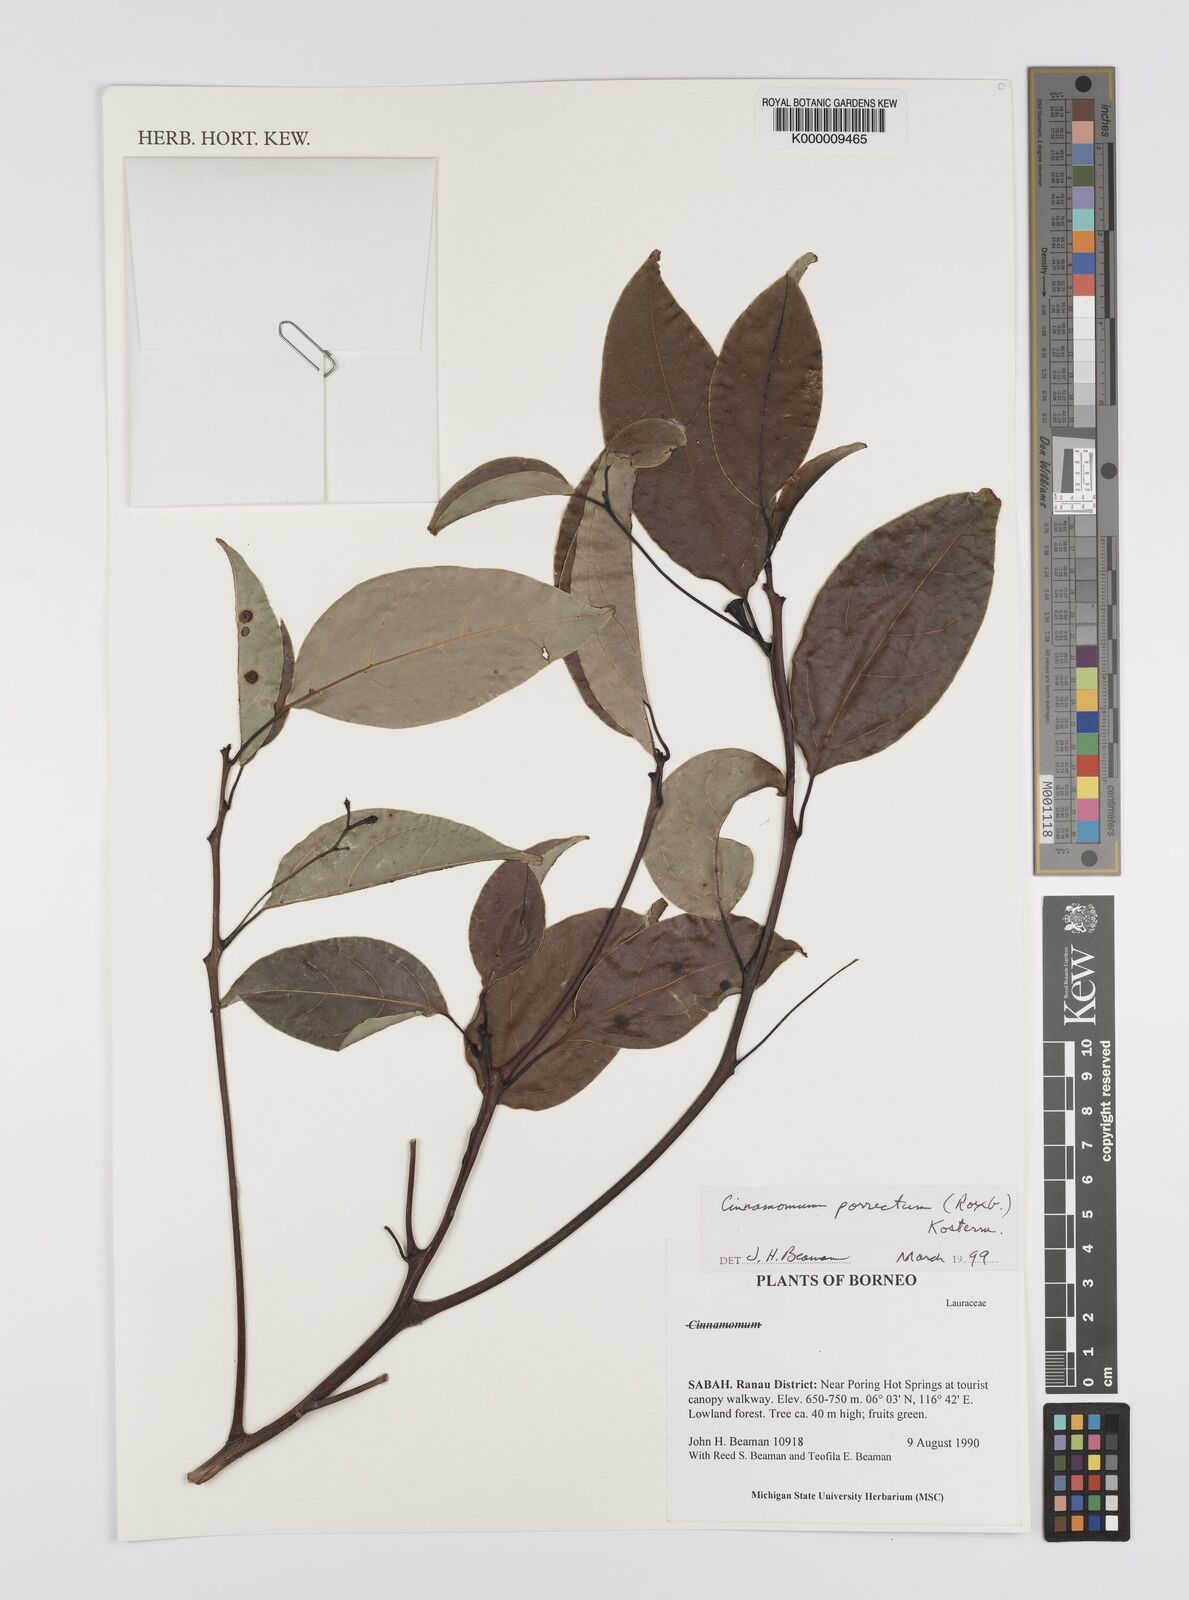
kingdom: Plantae
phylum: Tracheophyta
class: Magnoliopsida
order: Laurales
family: Lauraceae
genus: Cinnamomum
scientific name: Cinnamomum
